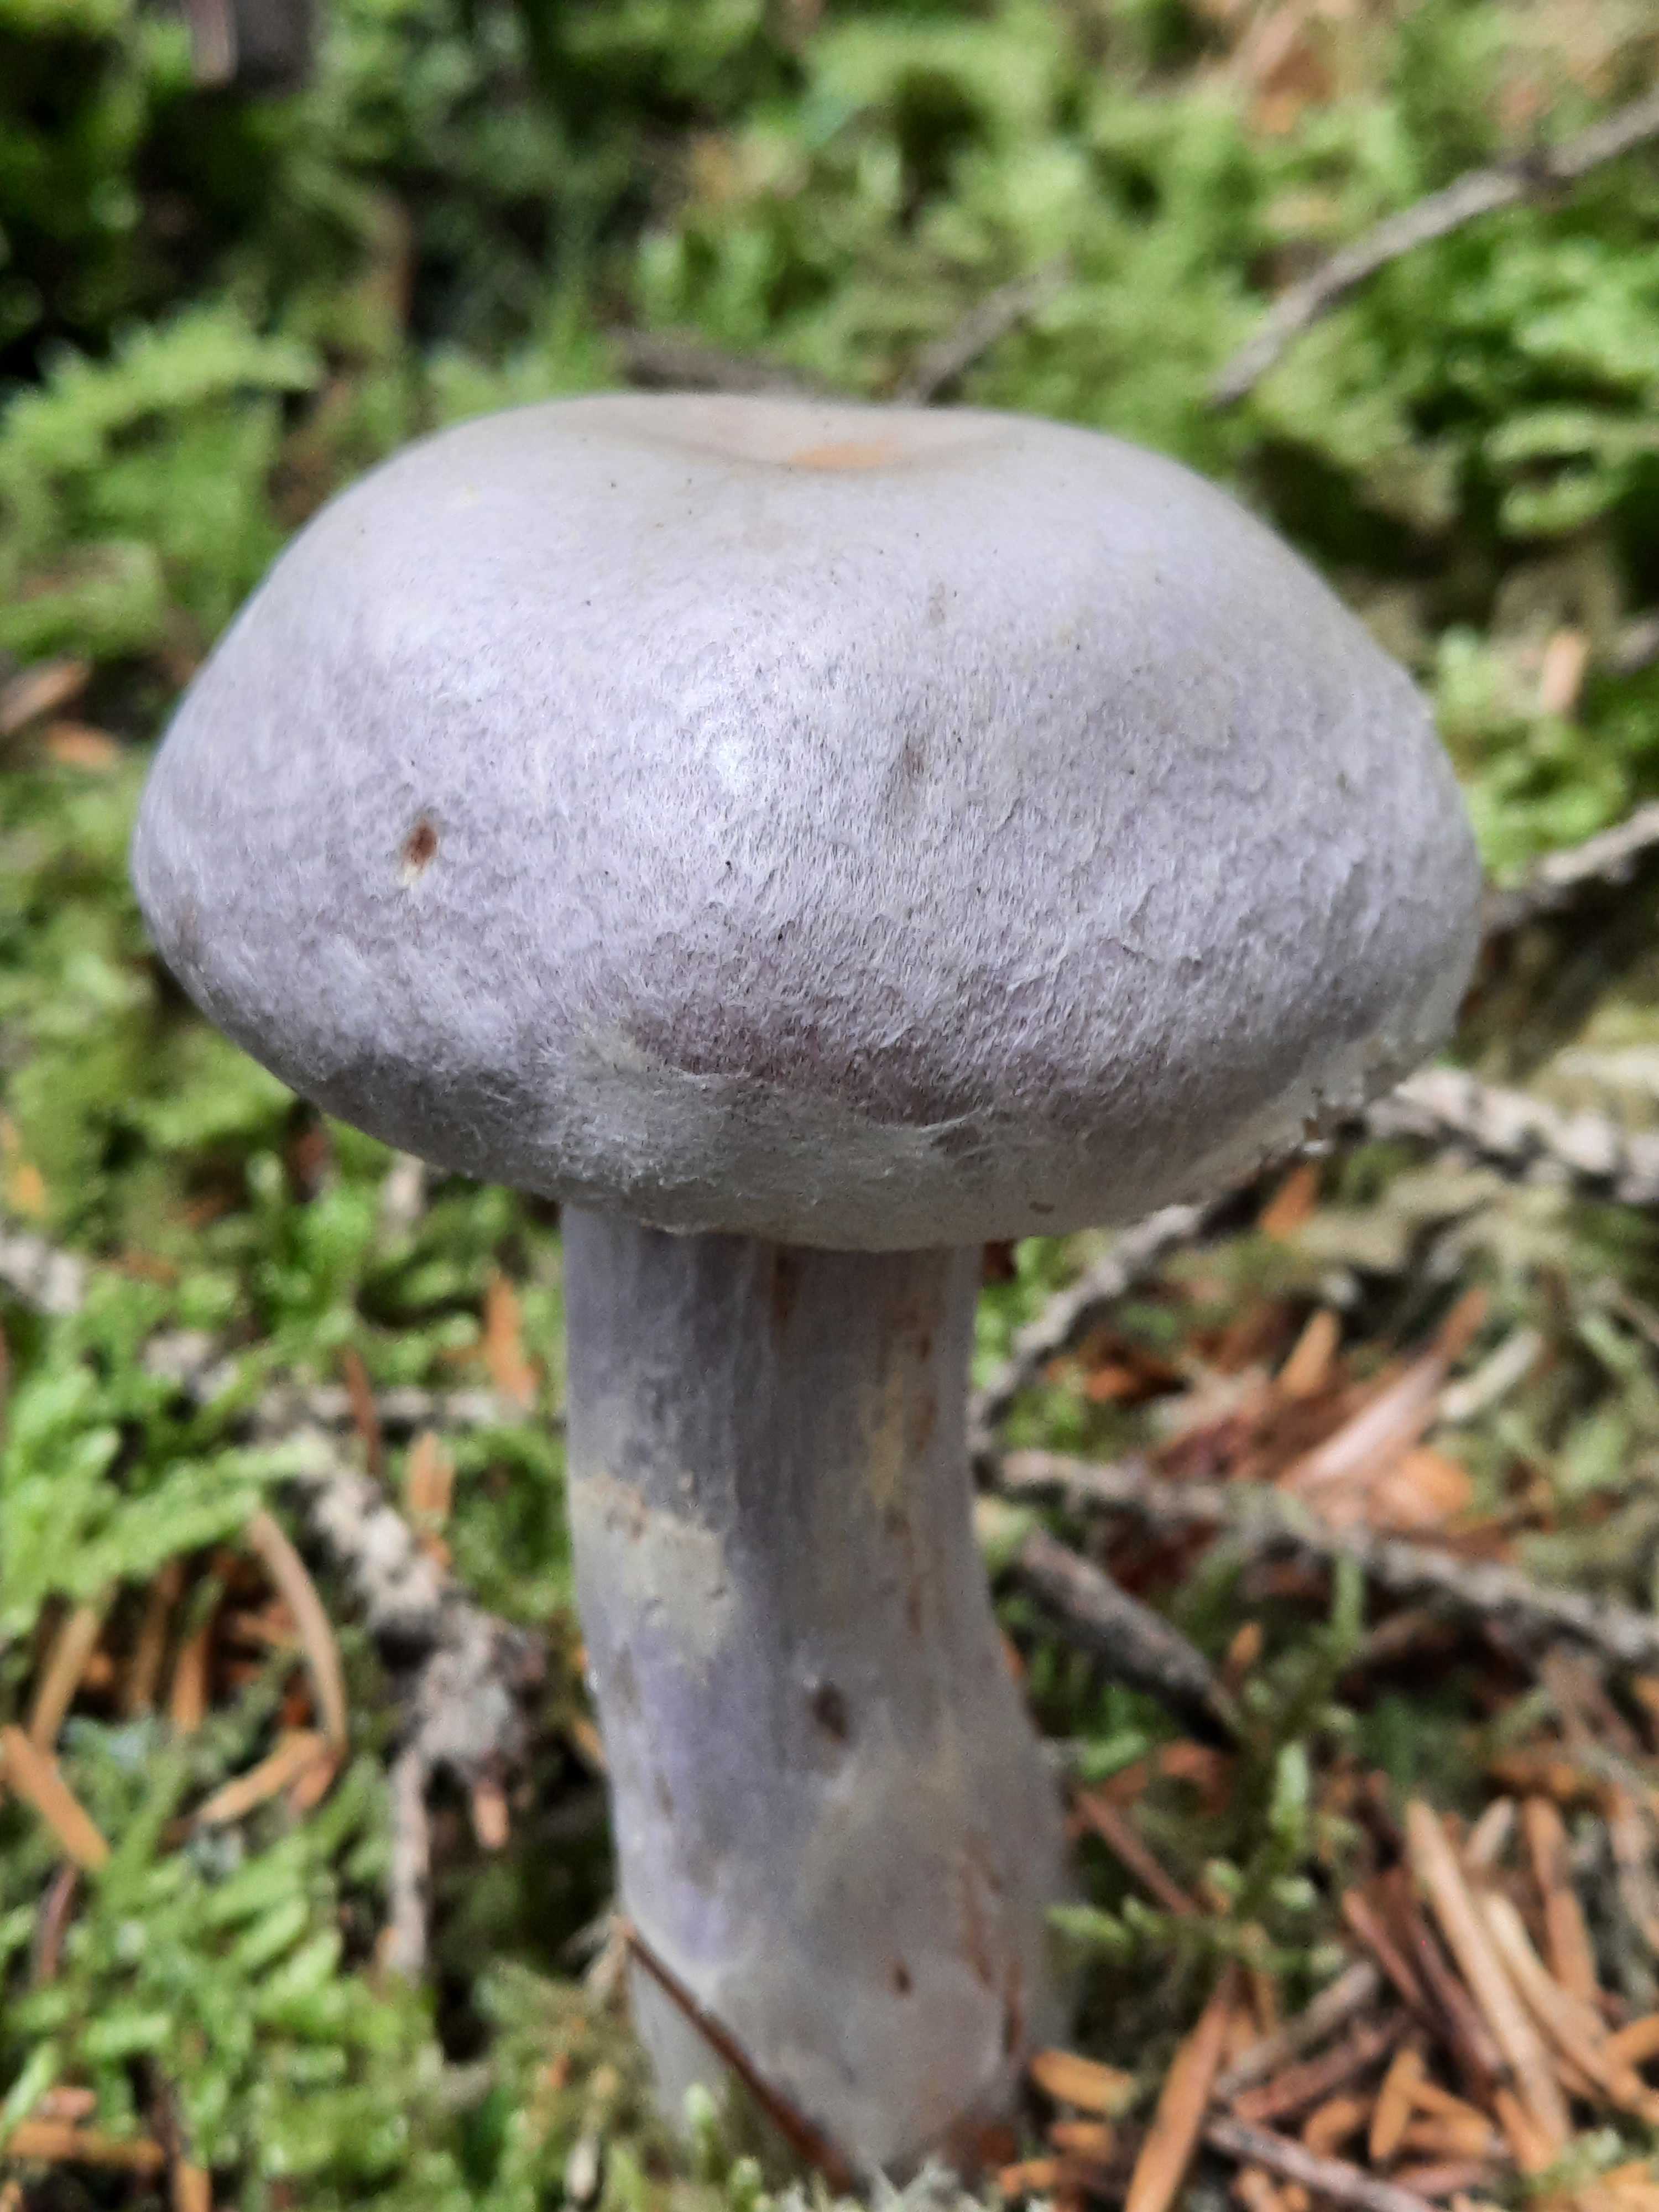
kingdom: Fungi
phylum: Basidiomycota
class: Agaricomycetes
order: Agaricales
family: Cortinariaceae
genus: Cortinarius
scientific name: Cortinarius camphoratus
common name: stinkende slørhat
